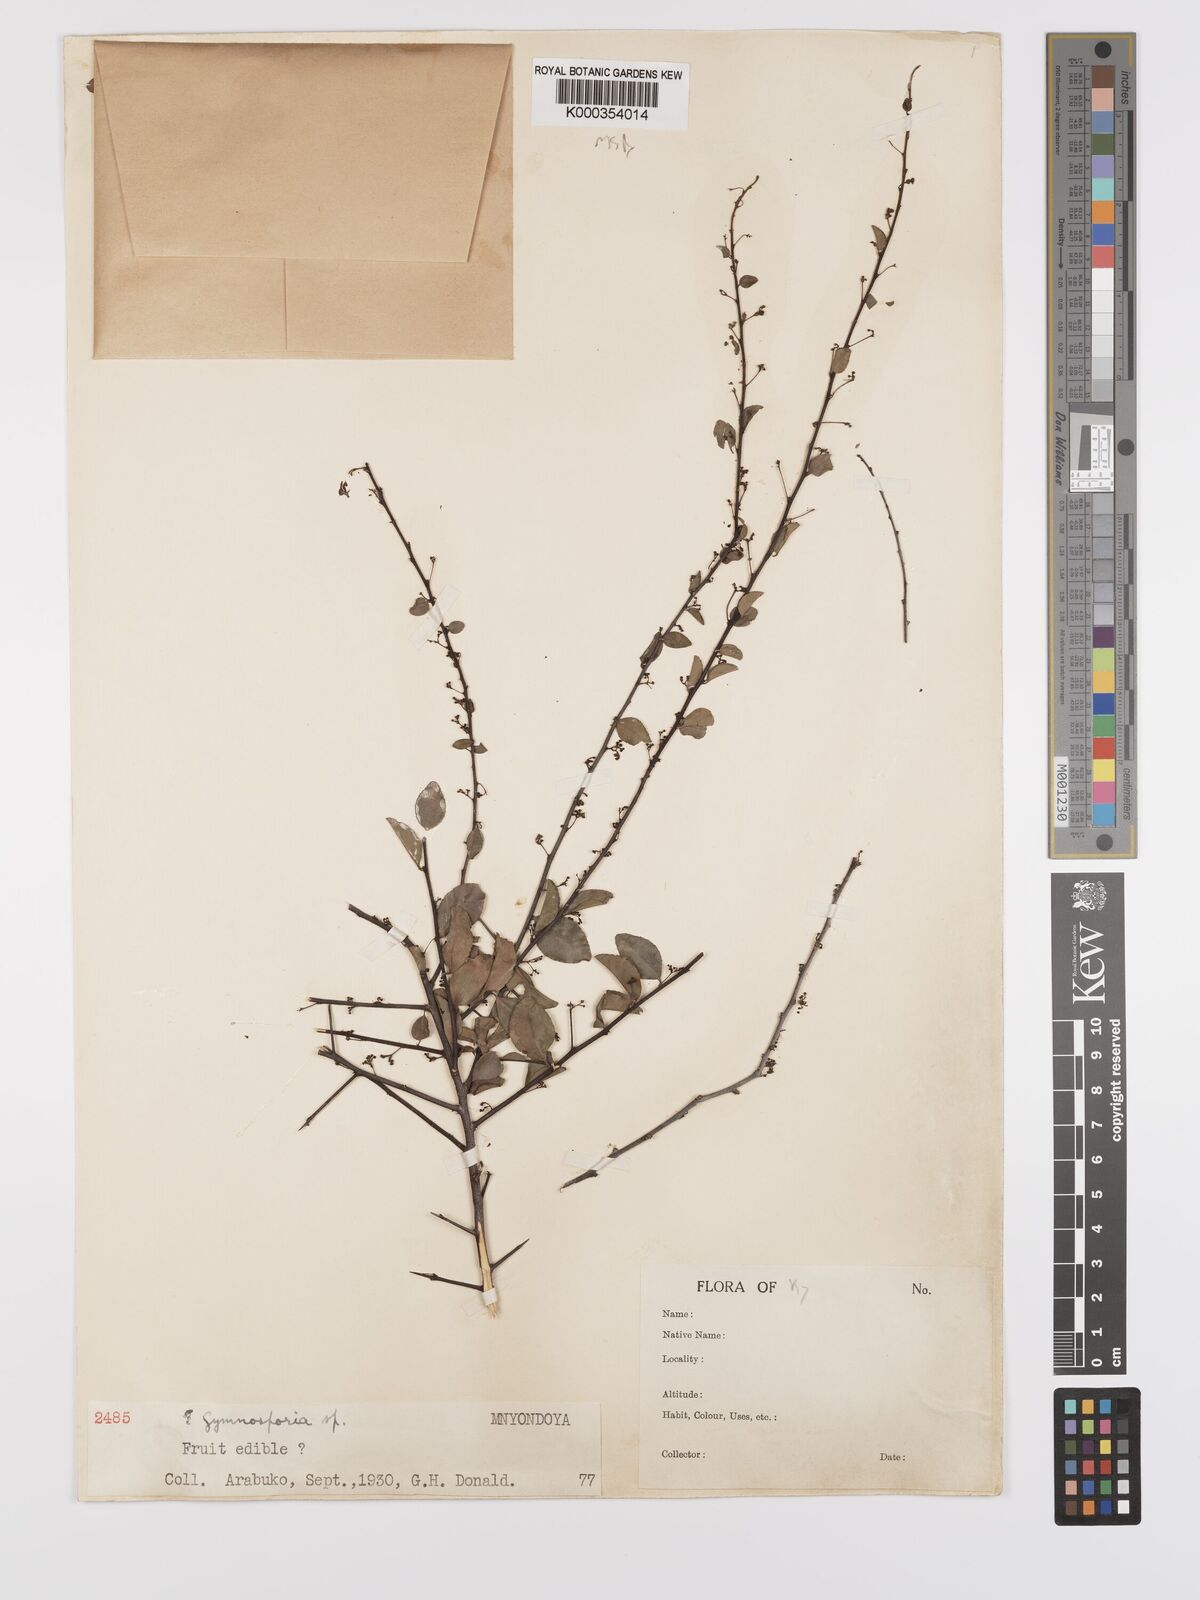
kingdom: Plantae
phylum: Tracheophyta
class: Magnoliopsida
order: Celastrales
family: Celastraceae
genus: Gymnosporia
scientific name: Gymnosporia mossambicensis
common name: Black forest spike-thorn
